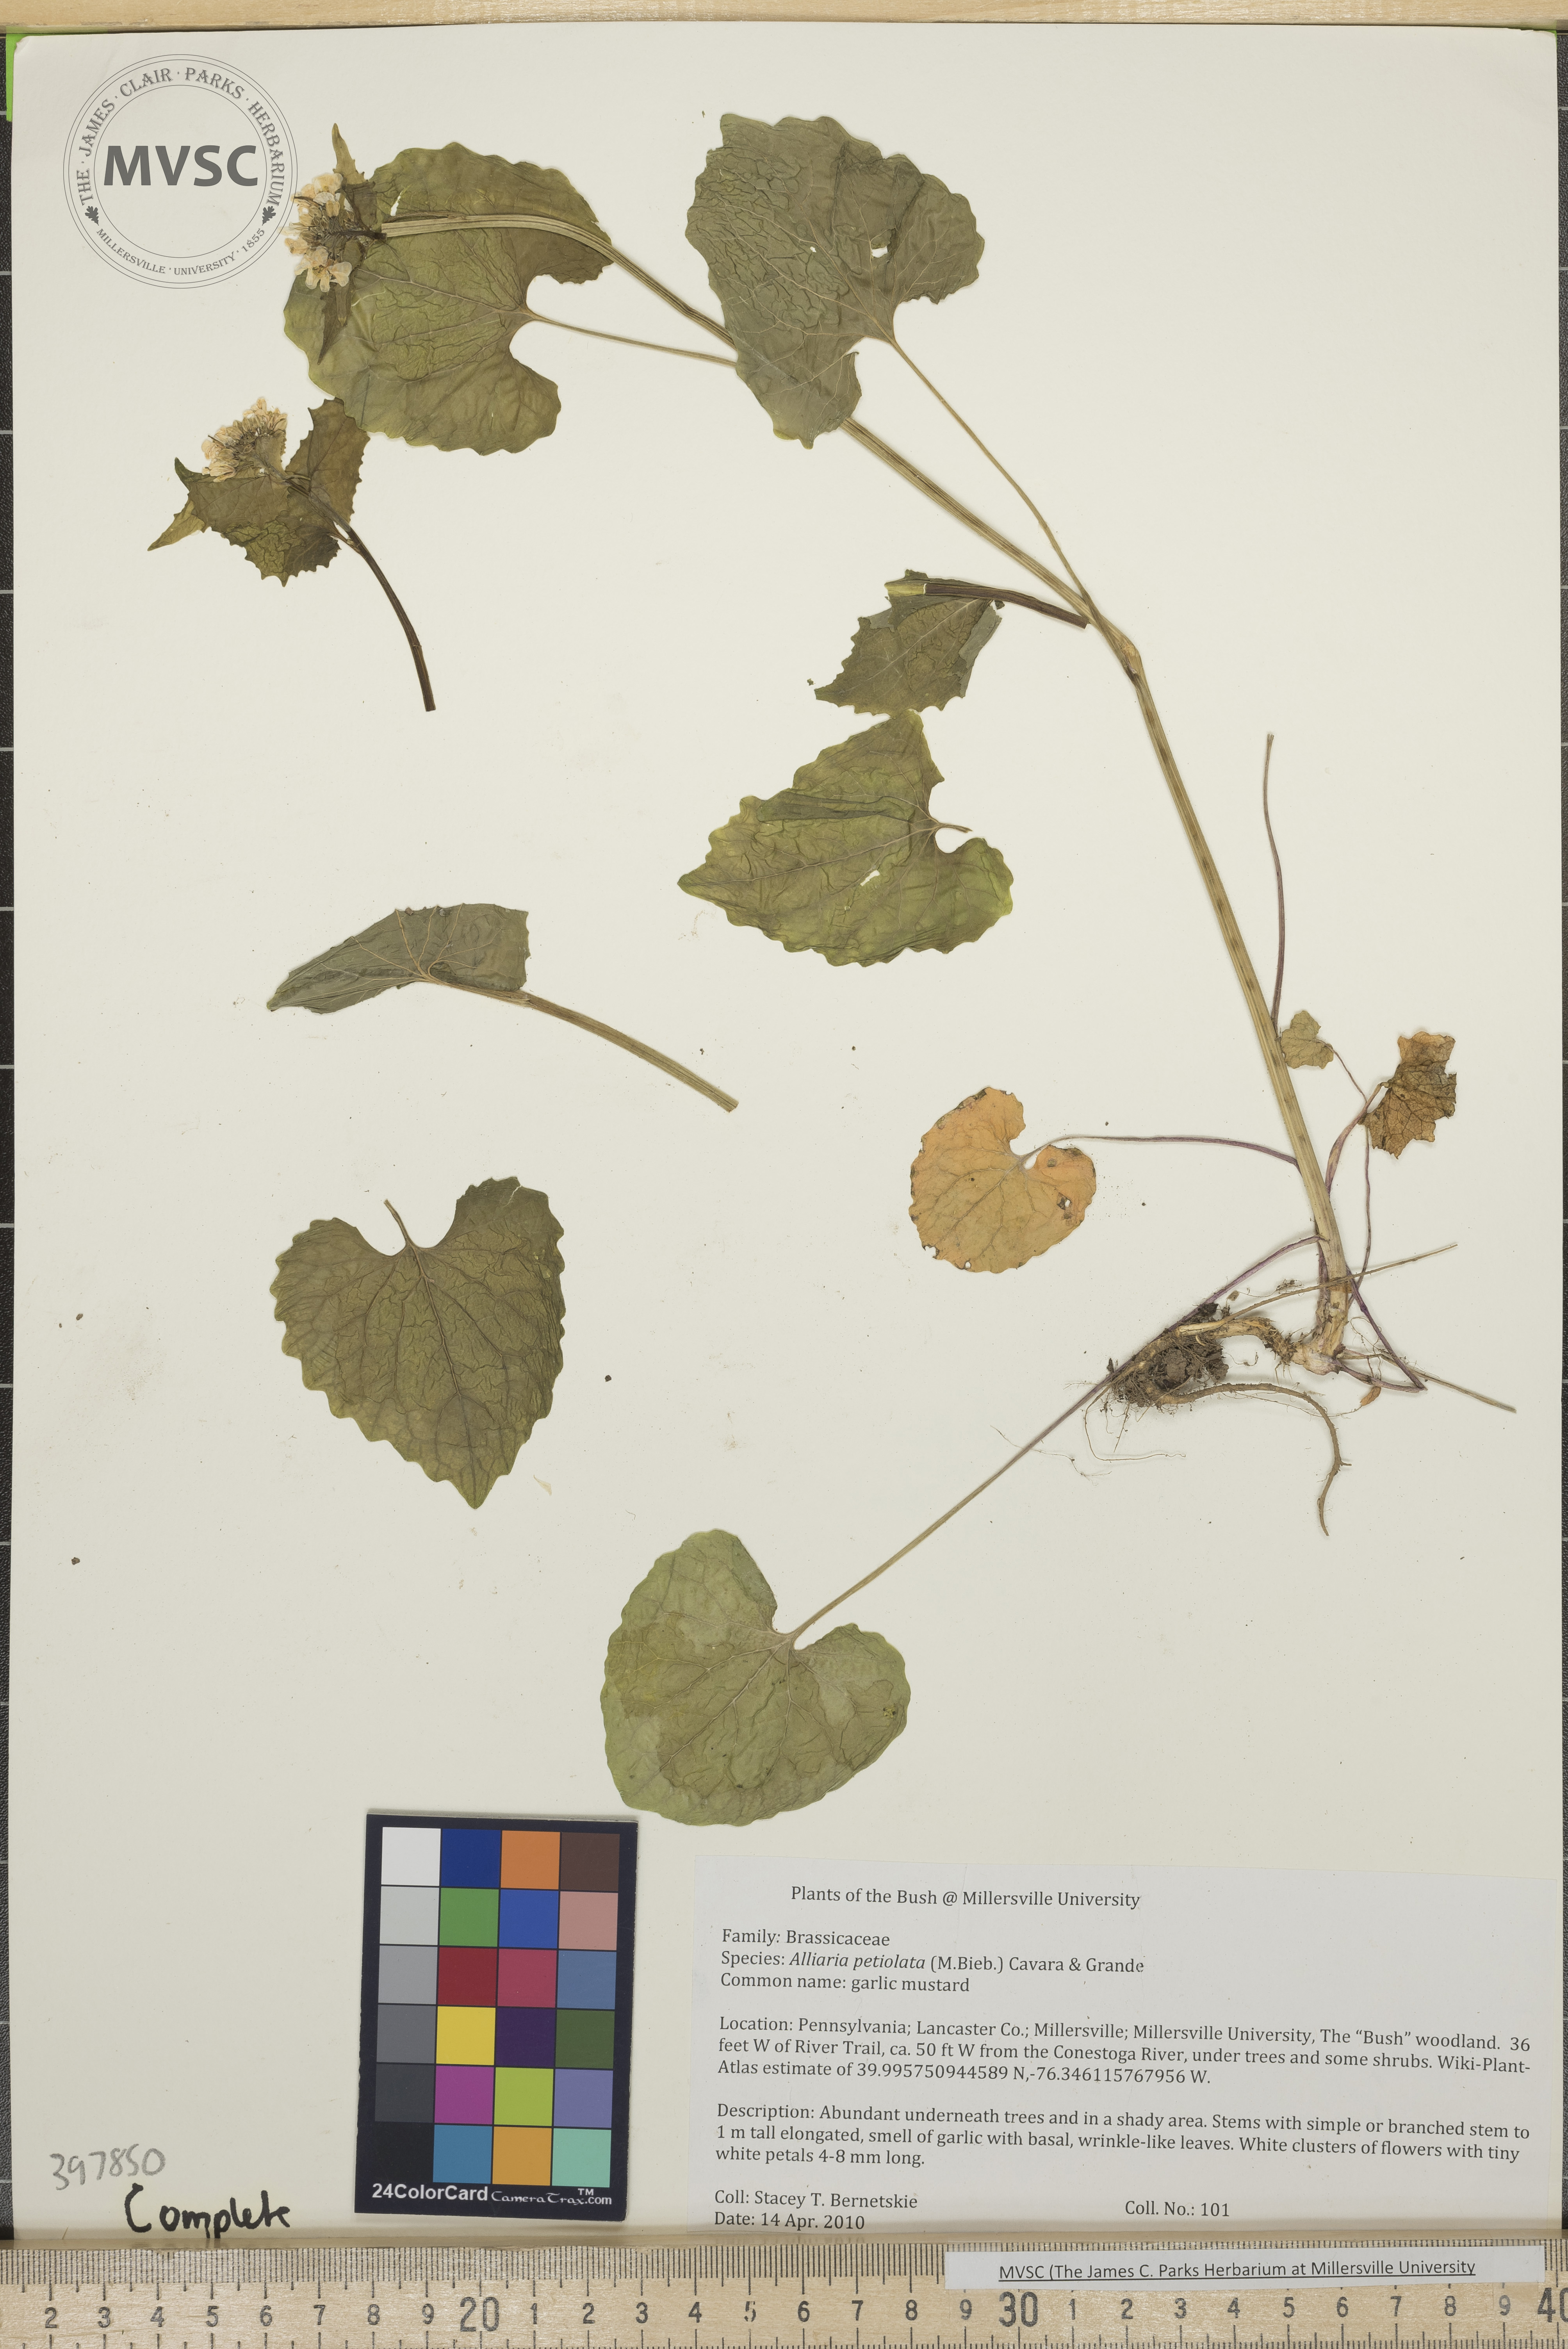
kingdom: Plantae
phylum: Tracheophyta
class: Magnoliopsida
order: Brassicales
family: Brassicaceae
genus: Alliaria
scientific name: Alliaria petiolata
